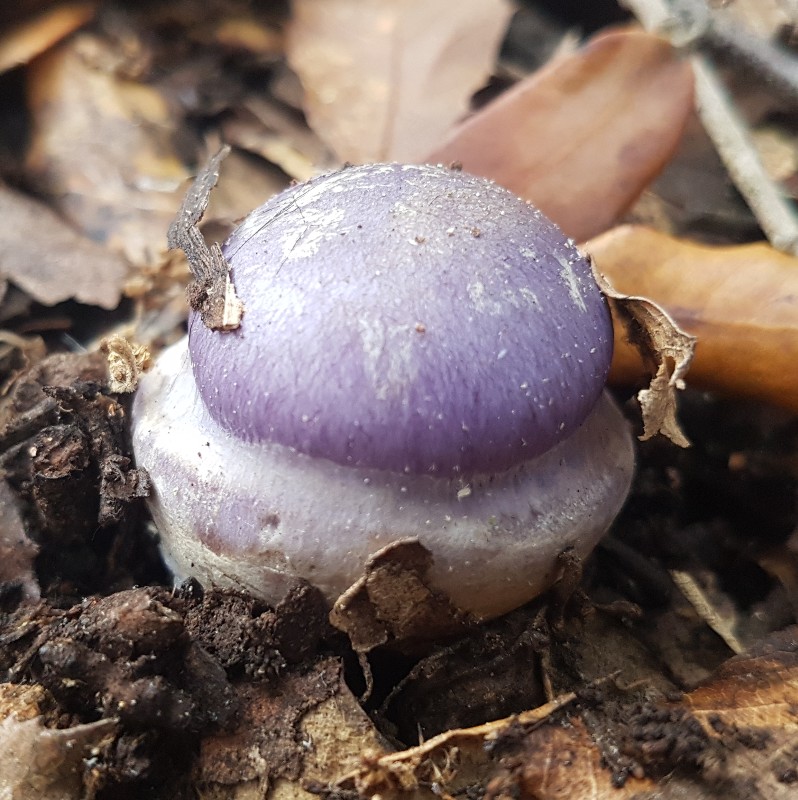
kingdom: Fungi
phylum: Basidiomycota
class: Agaricomycetes
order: Agaricales
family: Cortinariaceae
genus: Phlegmacium
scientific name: Phlegmacium eucaeruleum
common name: indigo-slørhat
